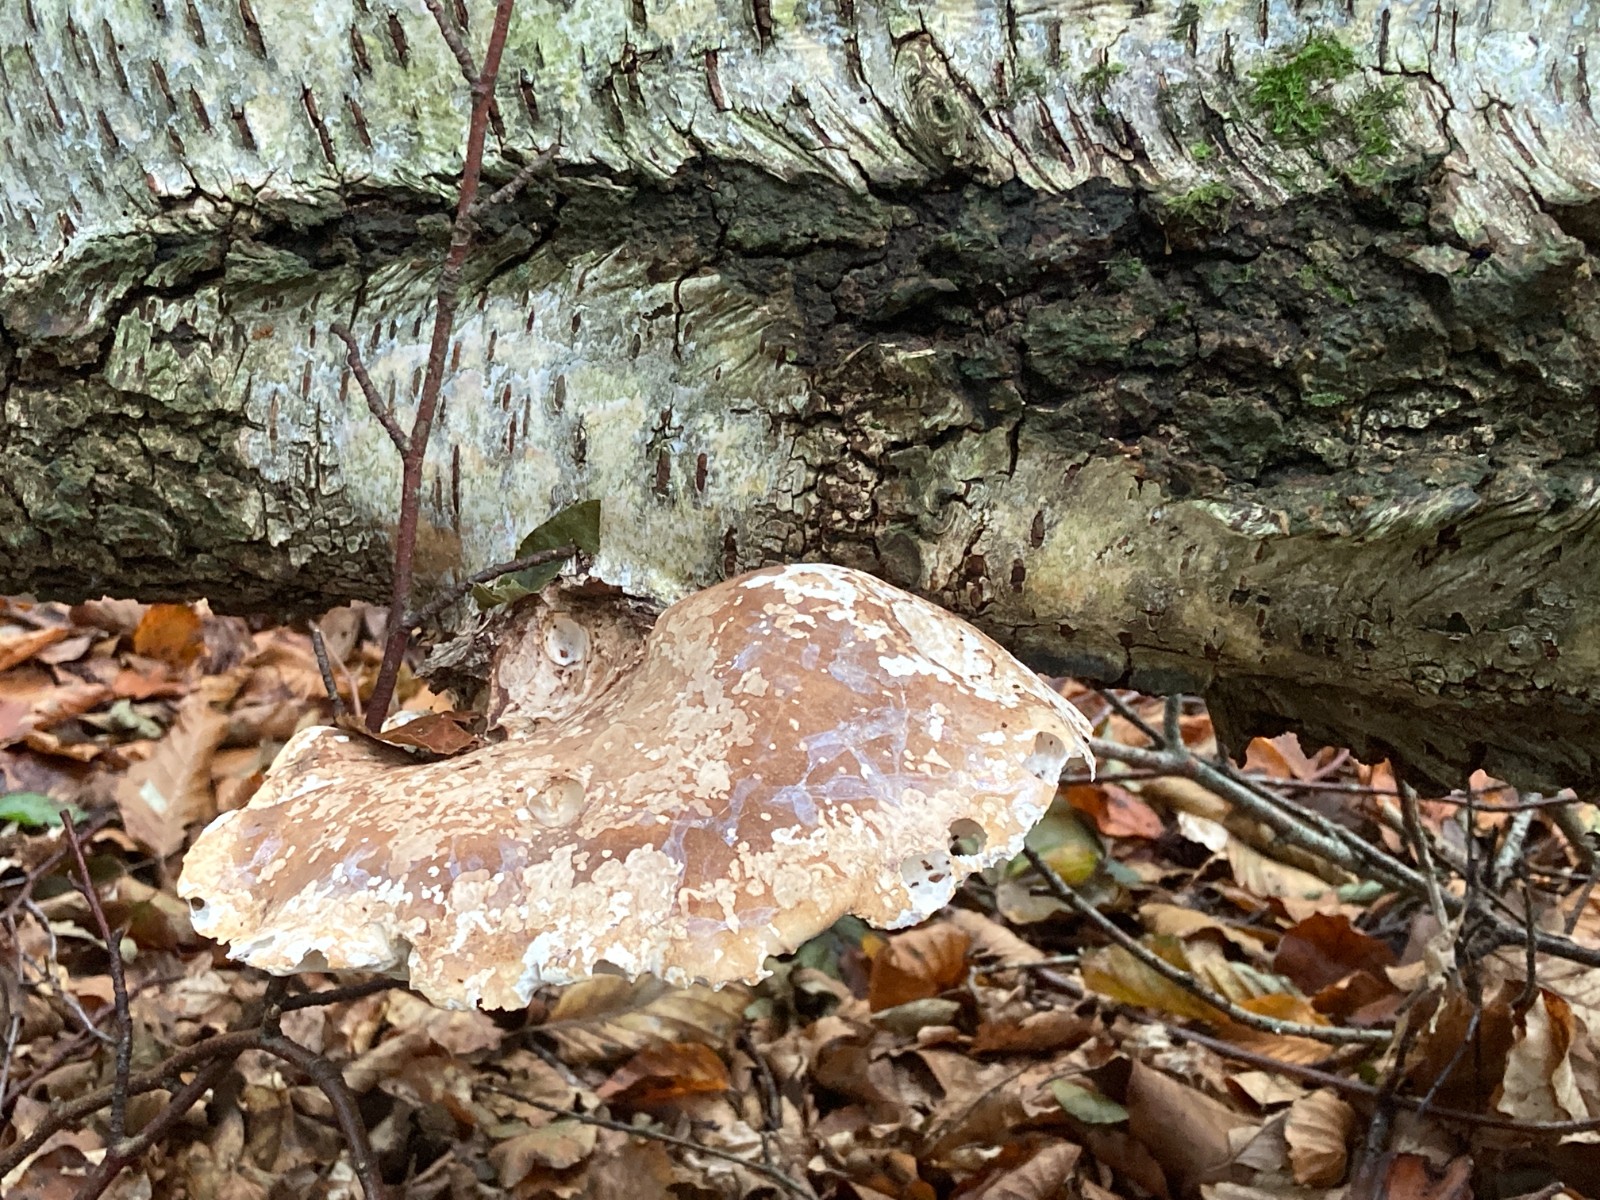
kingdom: Fungi
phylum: Basidiomycota
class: Agaricomycetes
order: Polyporales
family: Fomitopsidaceae
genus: Fomitopsis
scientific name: Fomitopsis betulina
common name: birkeporesvamp
